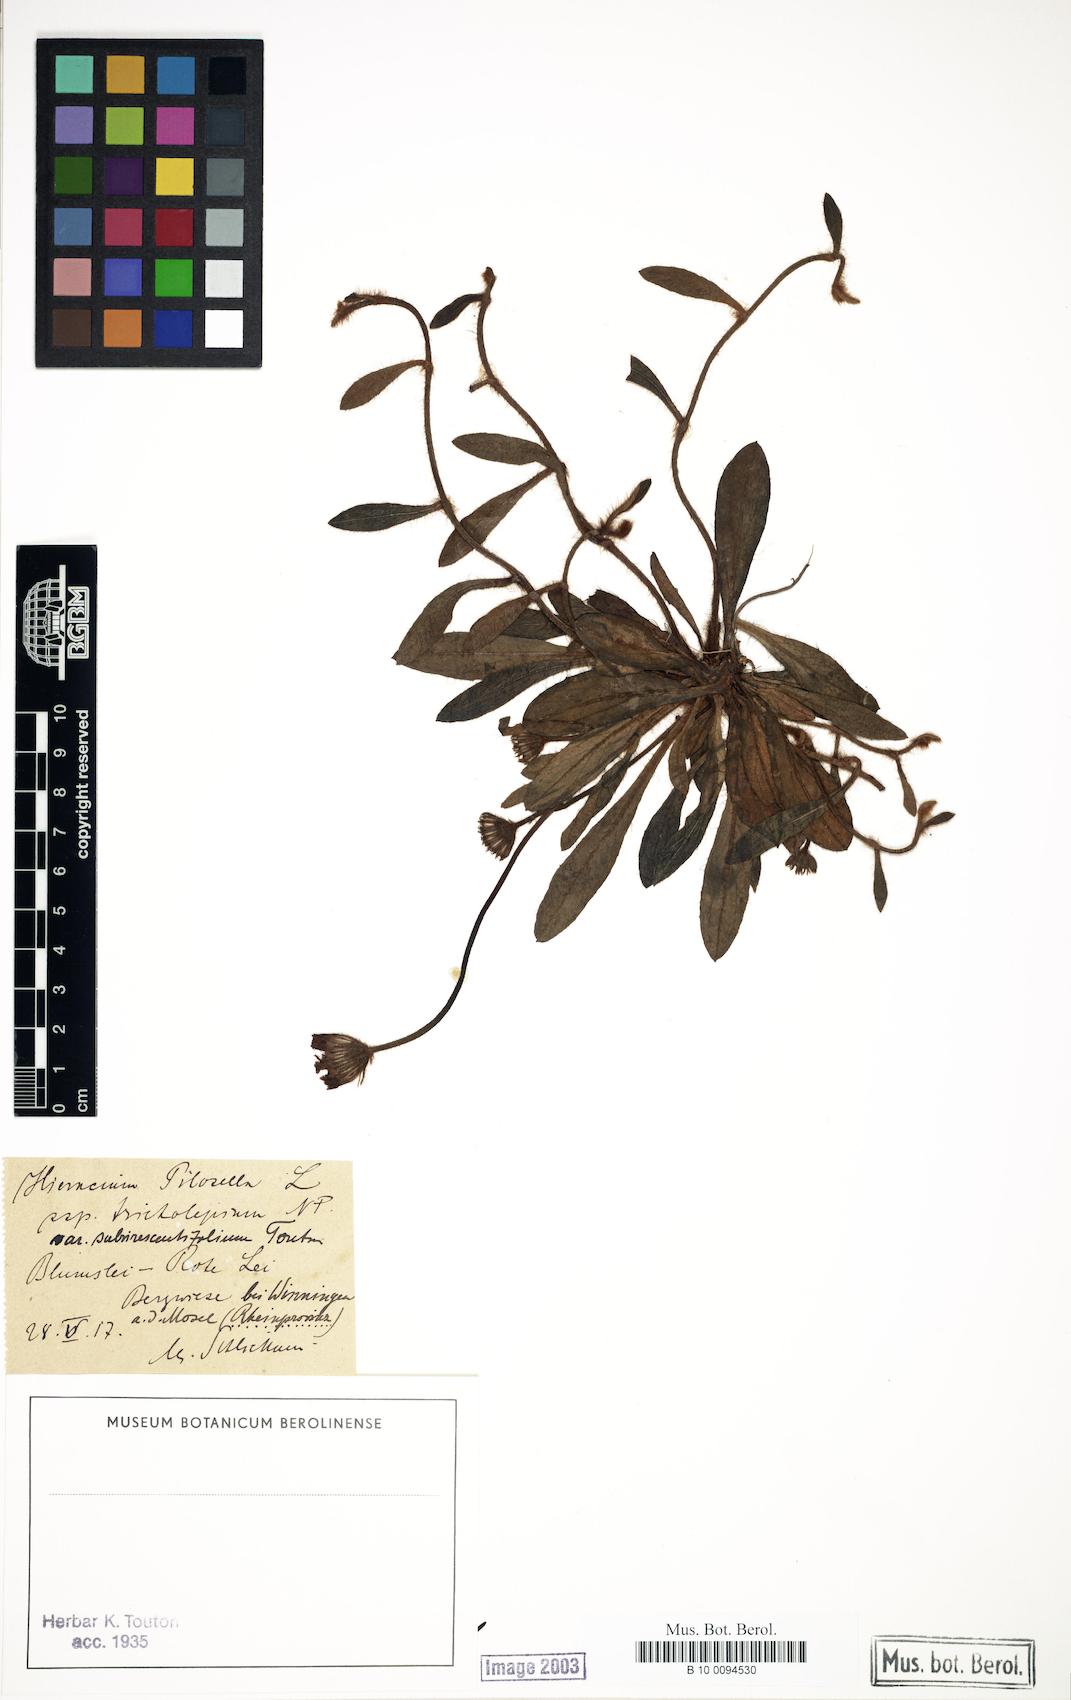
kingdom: Plantae
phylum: Tracheophyta
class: Magnoliopsida
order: Asterales
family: Asteraceae
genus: Pilosella
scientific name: Pilosella officinarum
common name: Mouse-ear hawkweed
